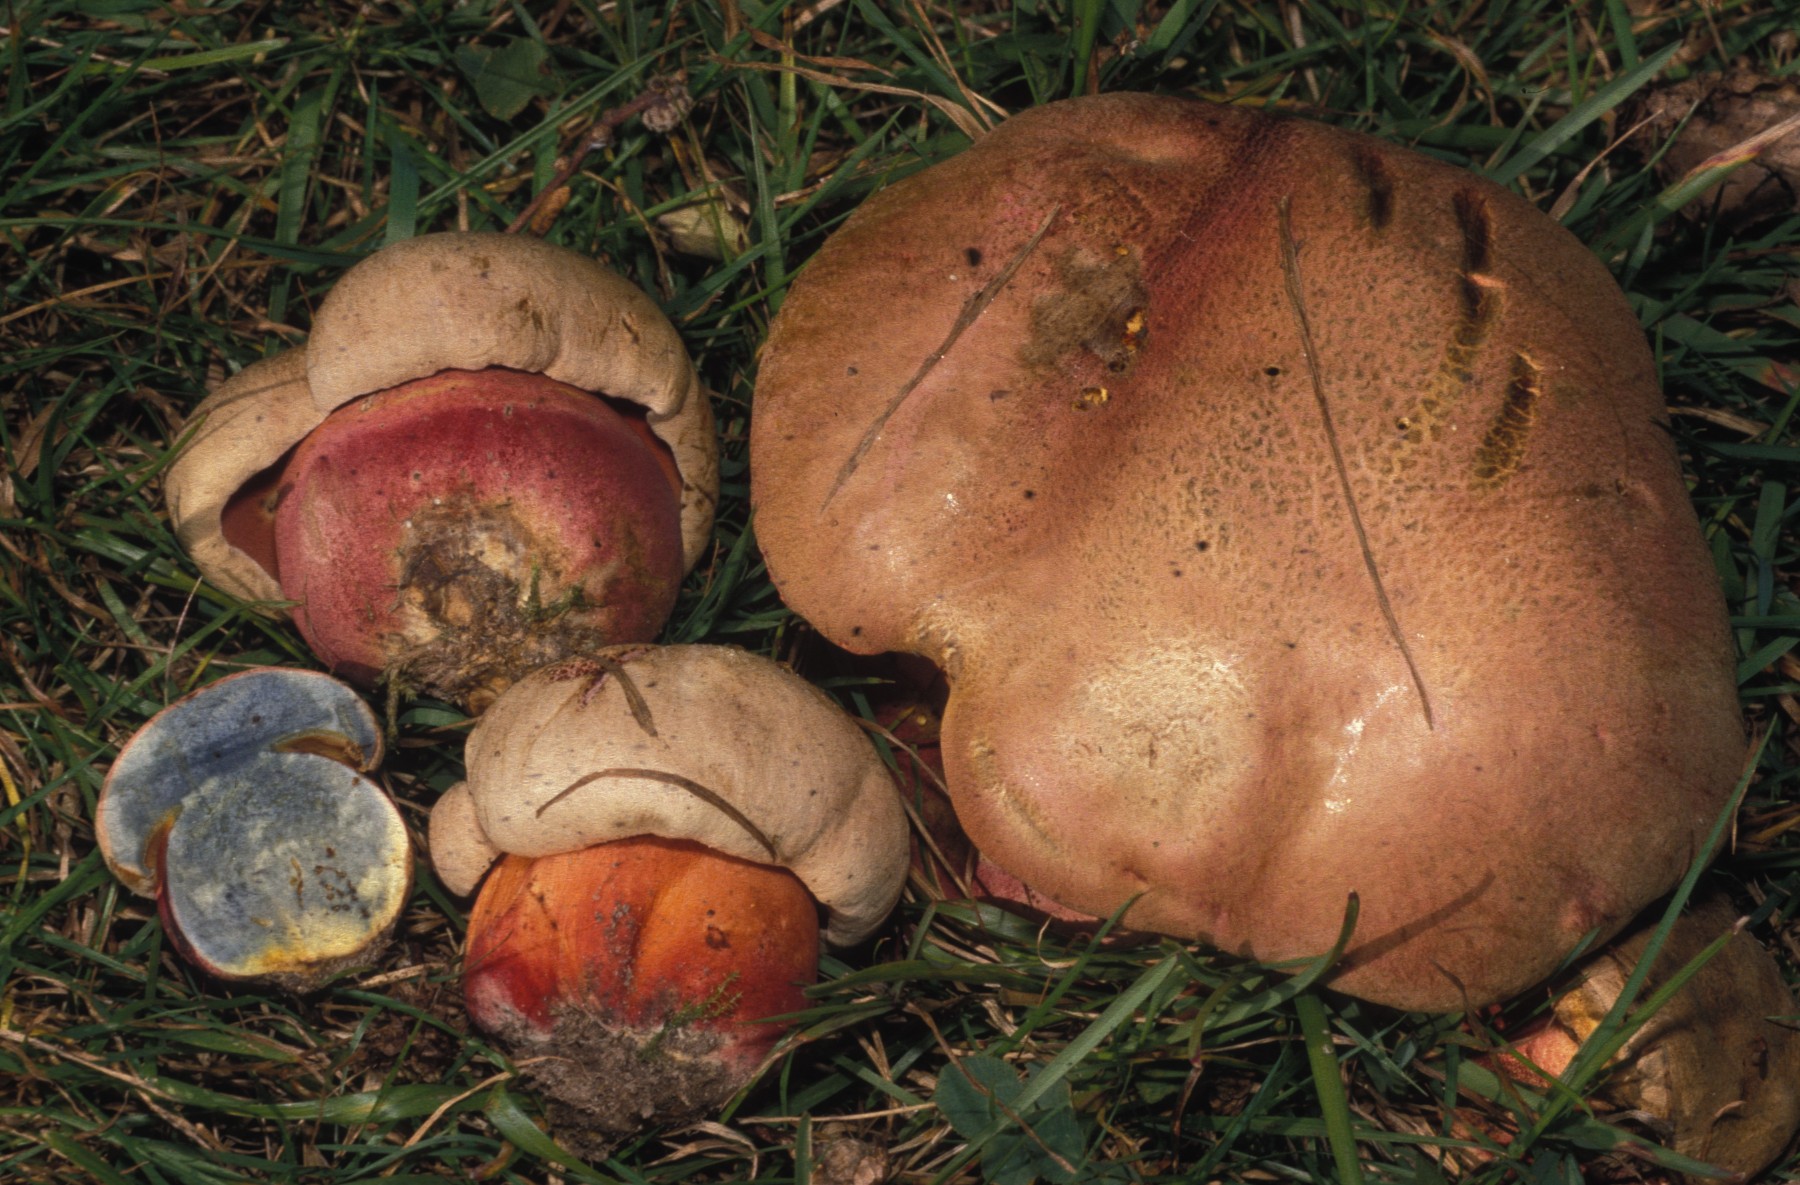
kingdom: Fungi
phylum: Basidiomycota
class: Agaricomycetes
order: Boletales
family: Boletaceae
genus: Rubroboletus
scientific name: Rubroboletus legaliae
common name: djævle-rørhat
